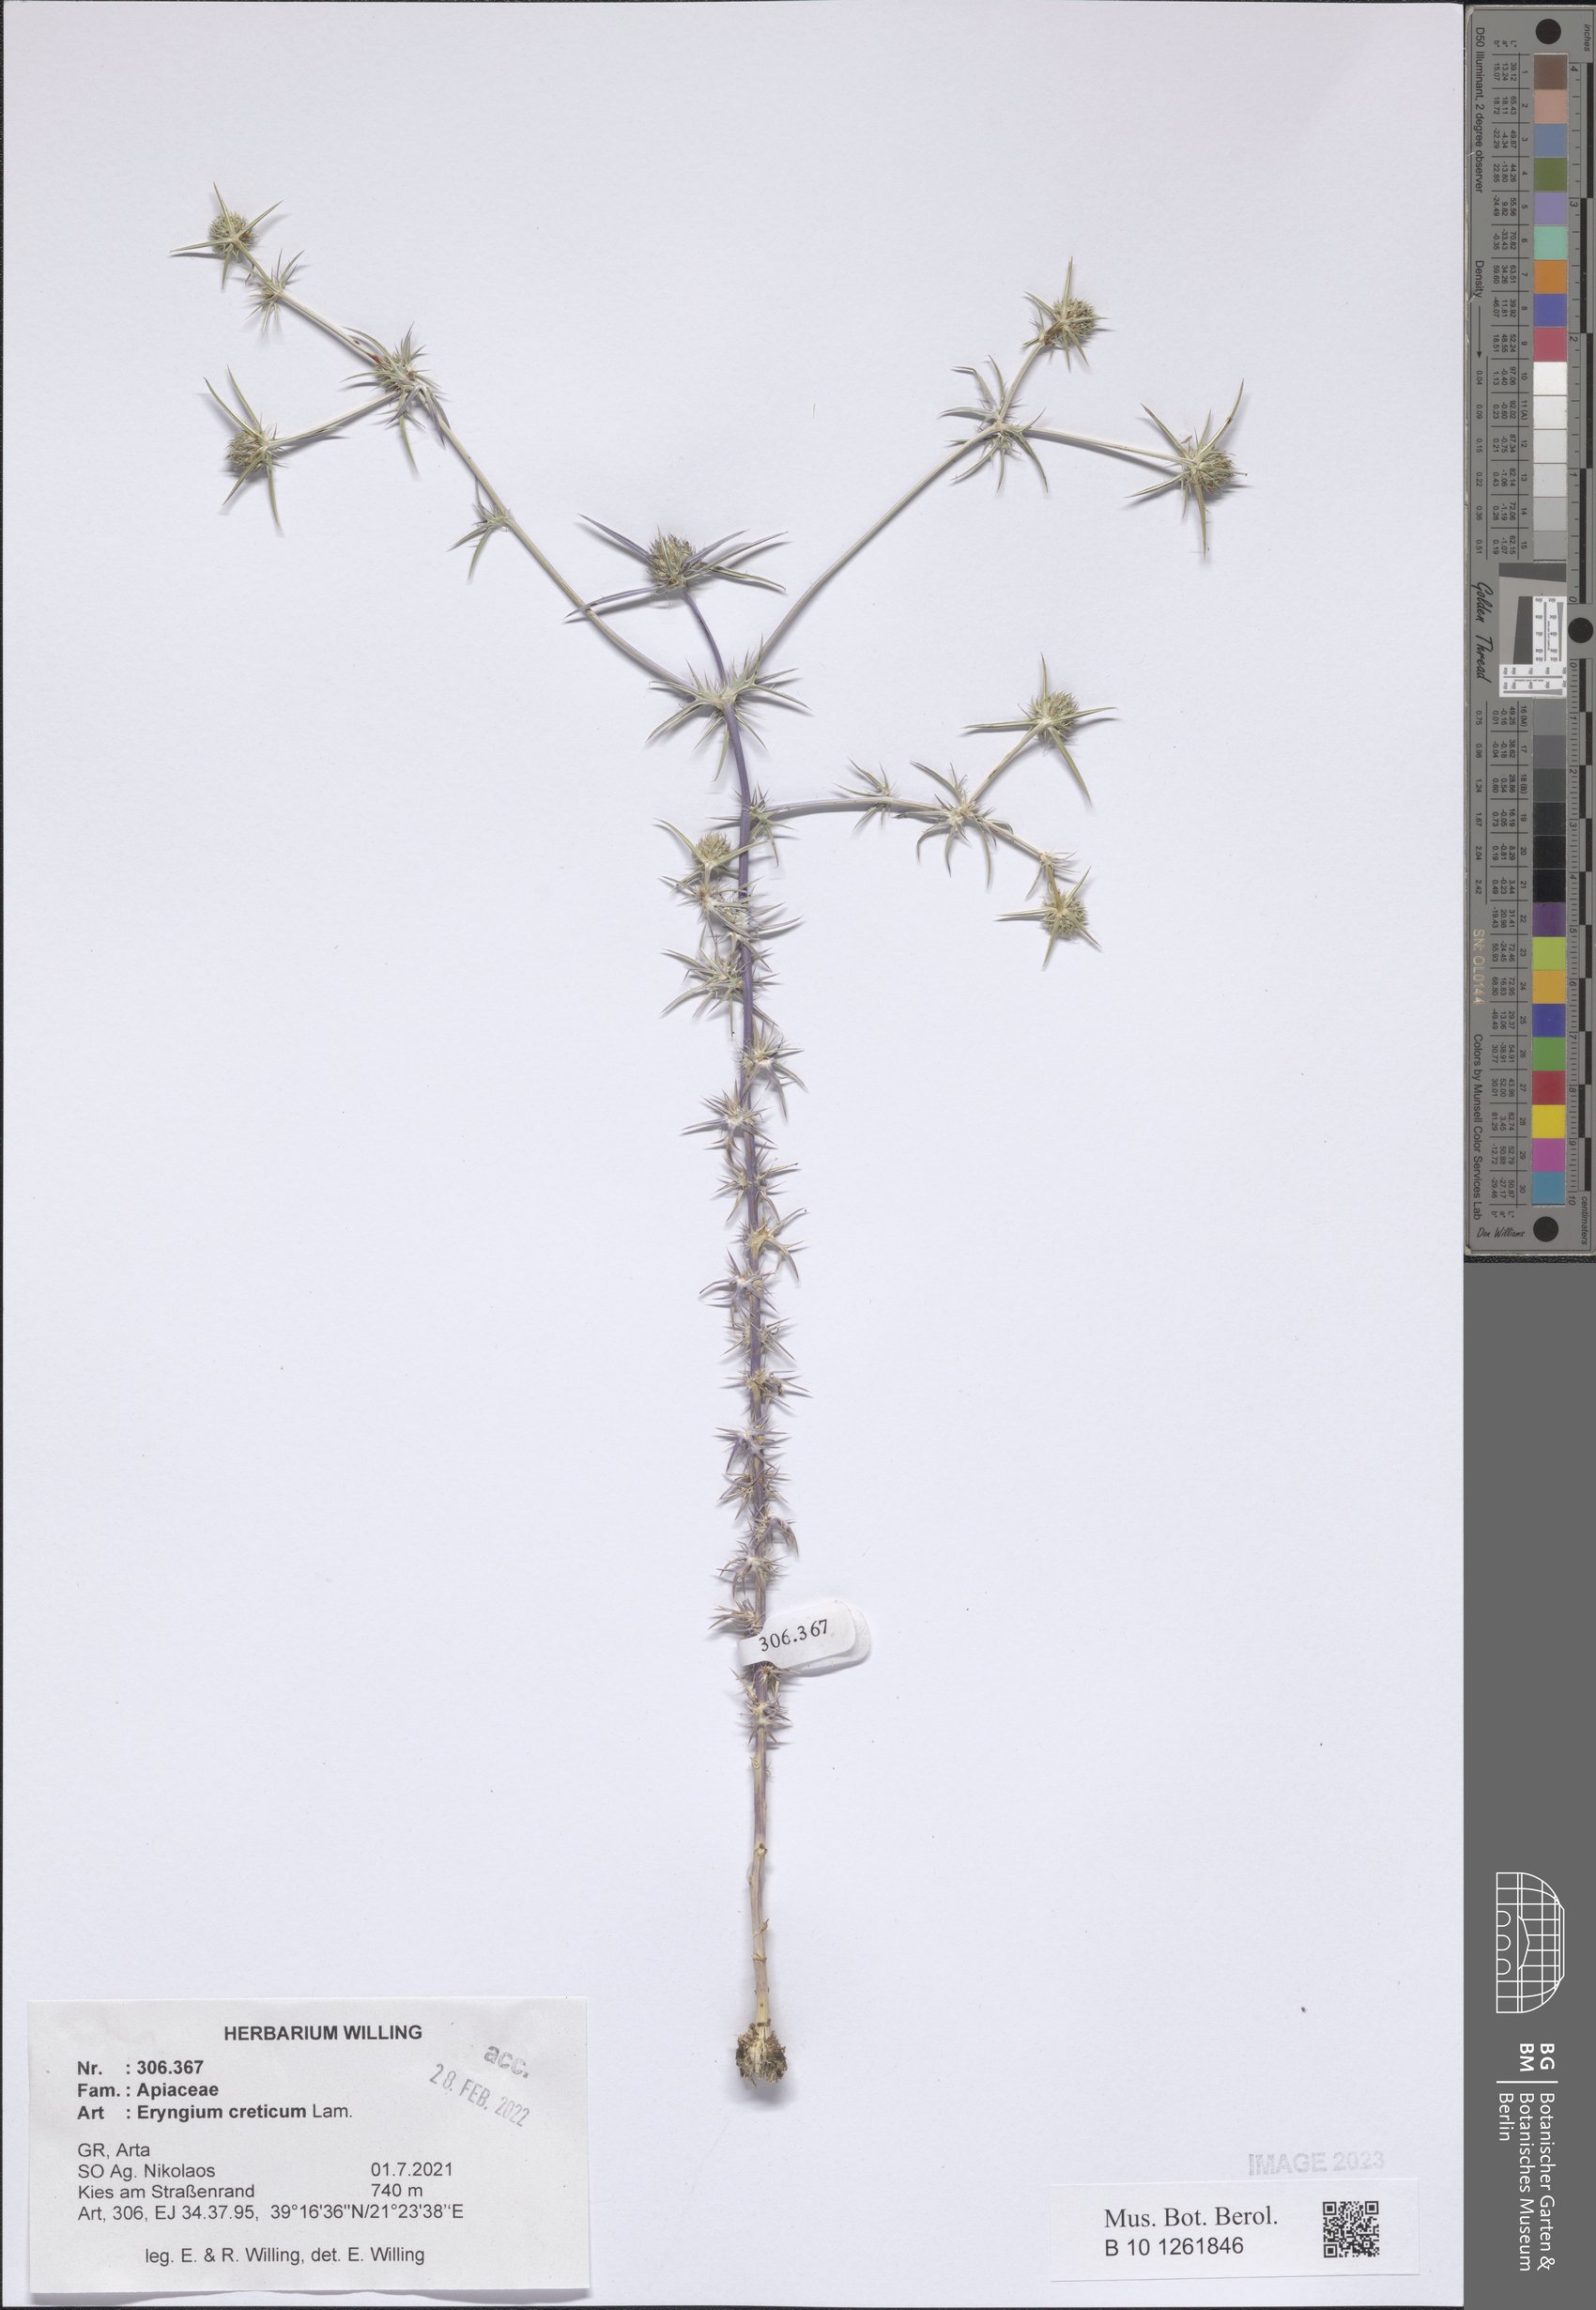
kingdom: Plantae
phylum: Tracheophyta
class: Magnoliopsida
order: Apiales
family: Apiaceae
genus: Eryngium
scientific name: Eryngium creticum
